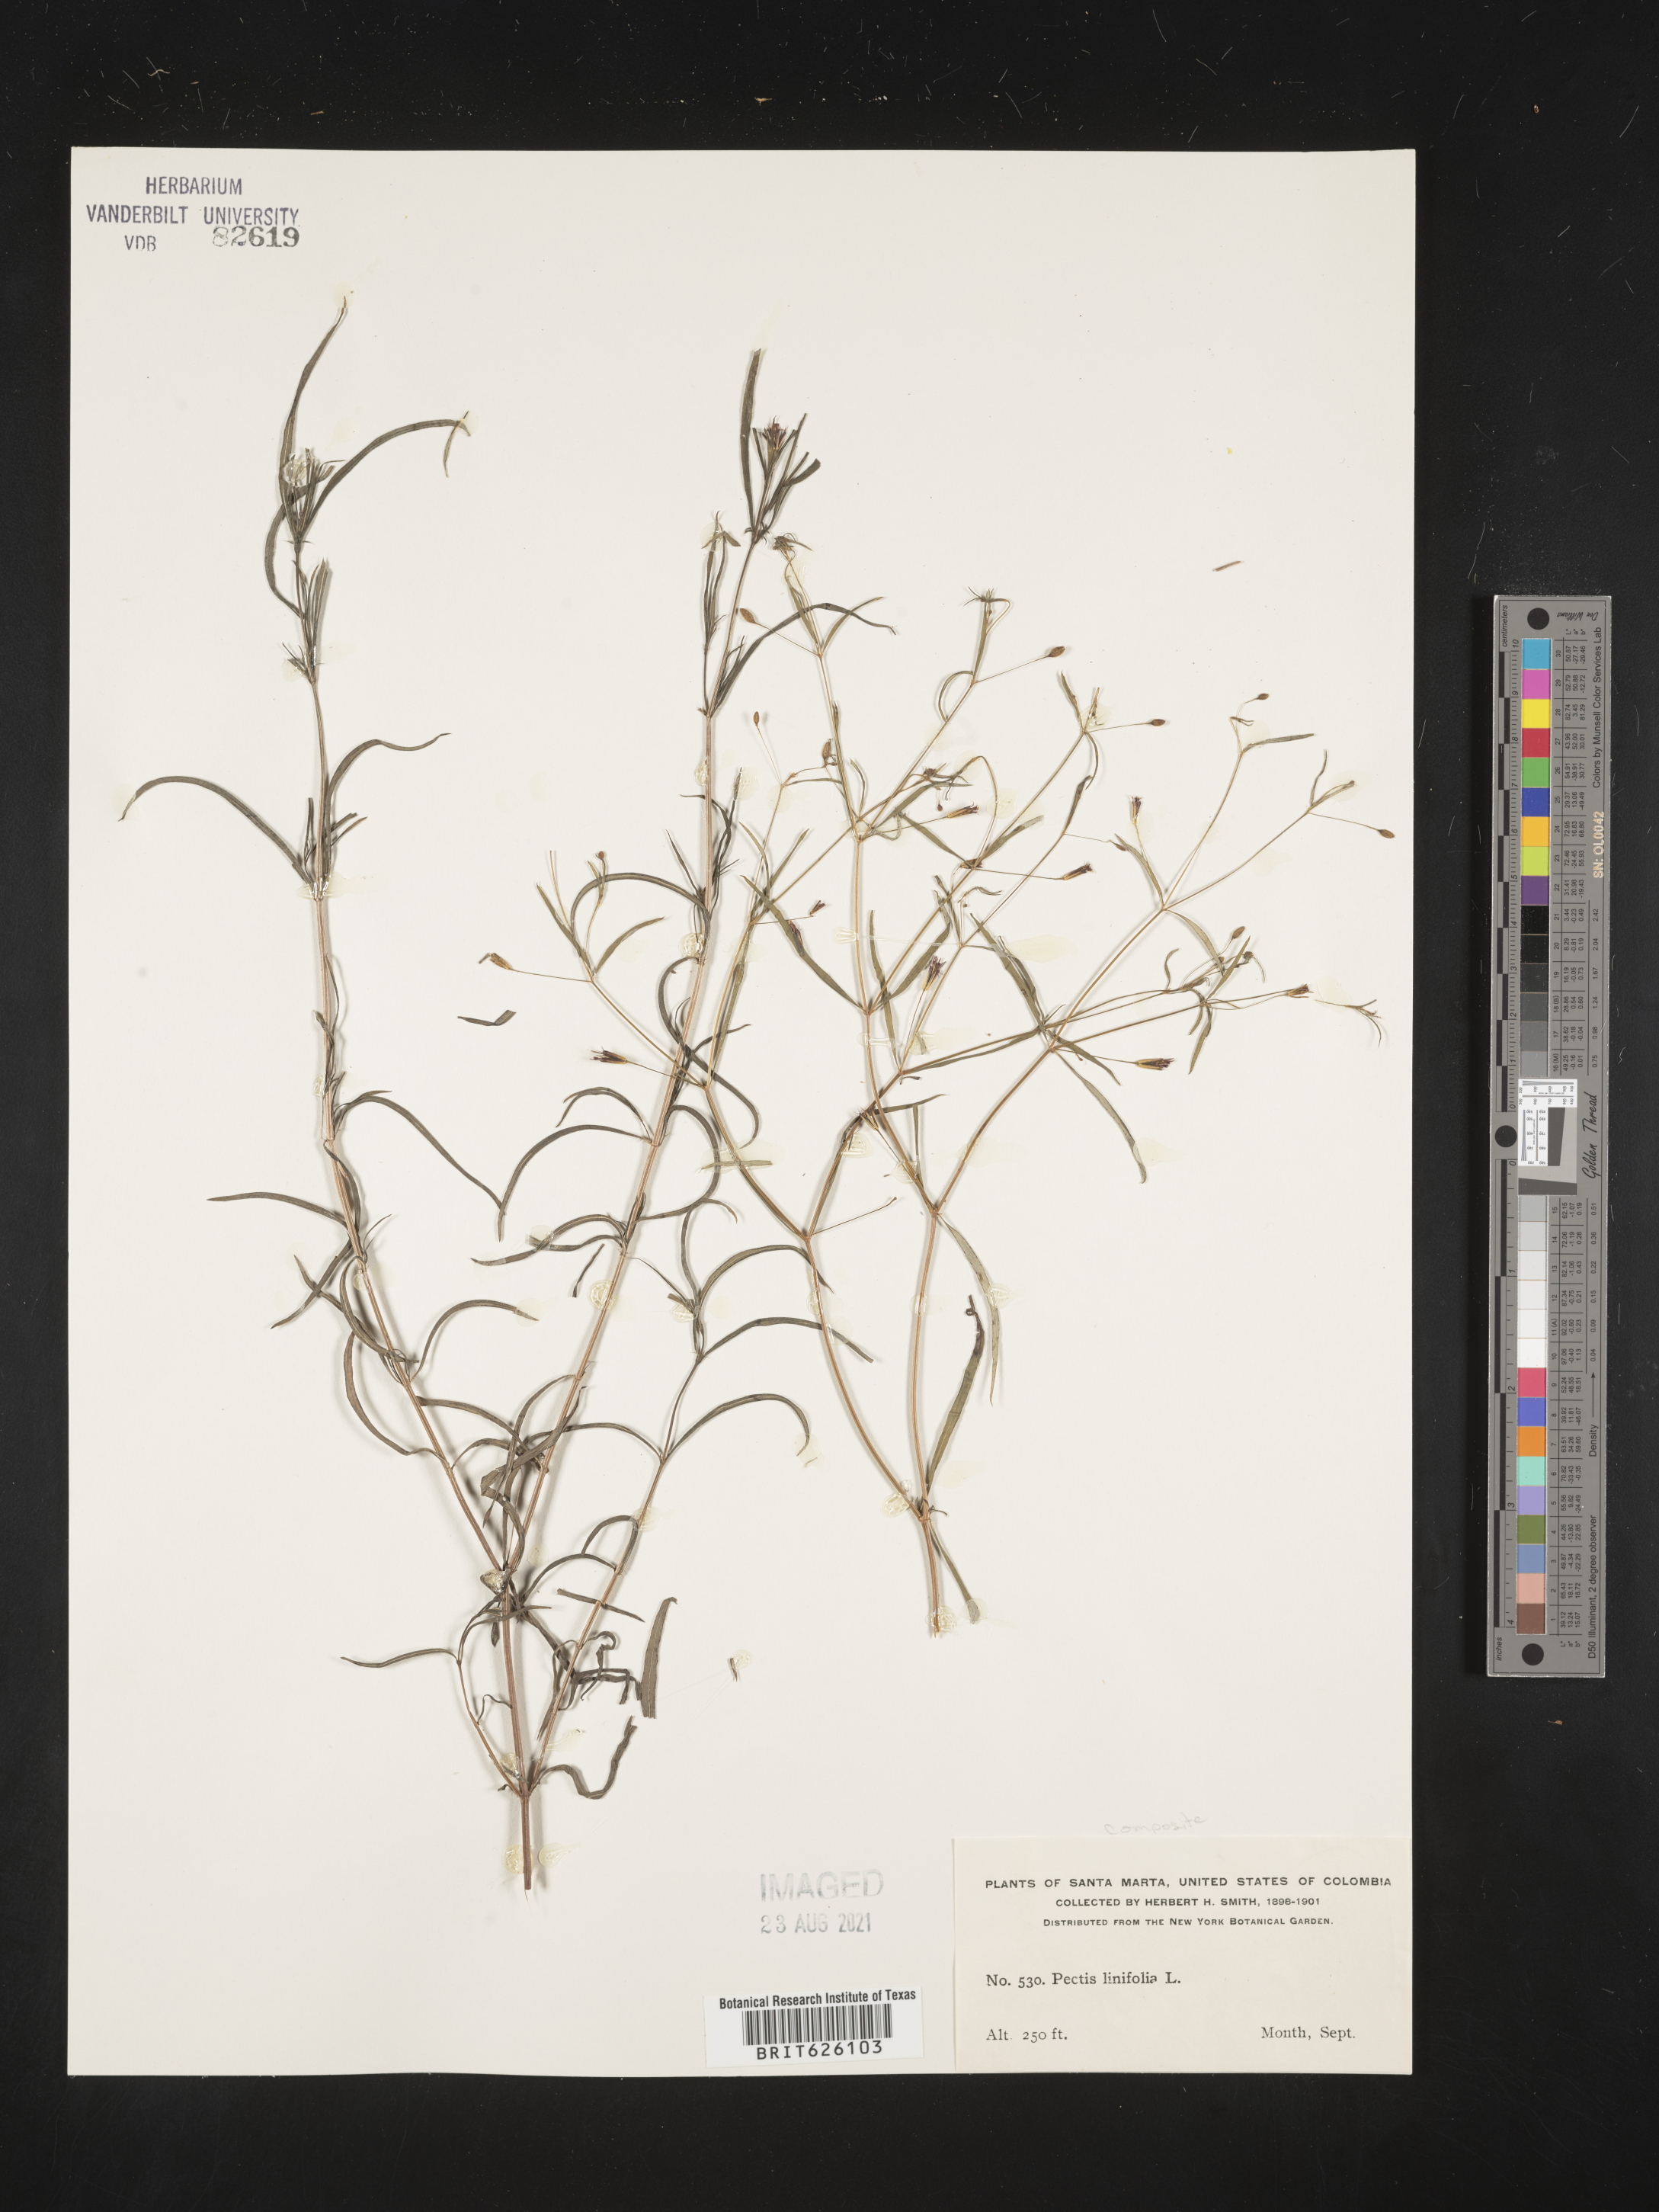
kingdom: Plantae
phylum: Tracheophyta
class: Magnoliopsida
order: Asterales
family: Asteraceae
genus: Pectis
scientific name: Pectis linifolia
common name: Romero macho
